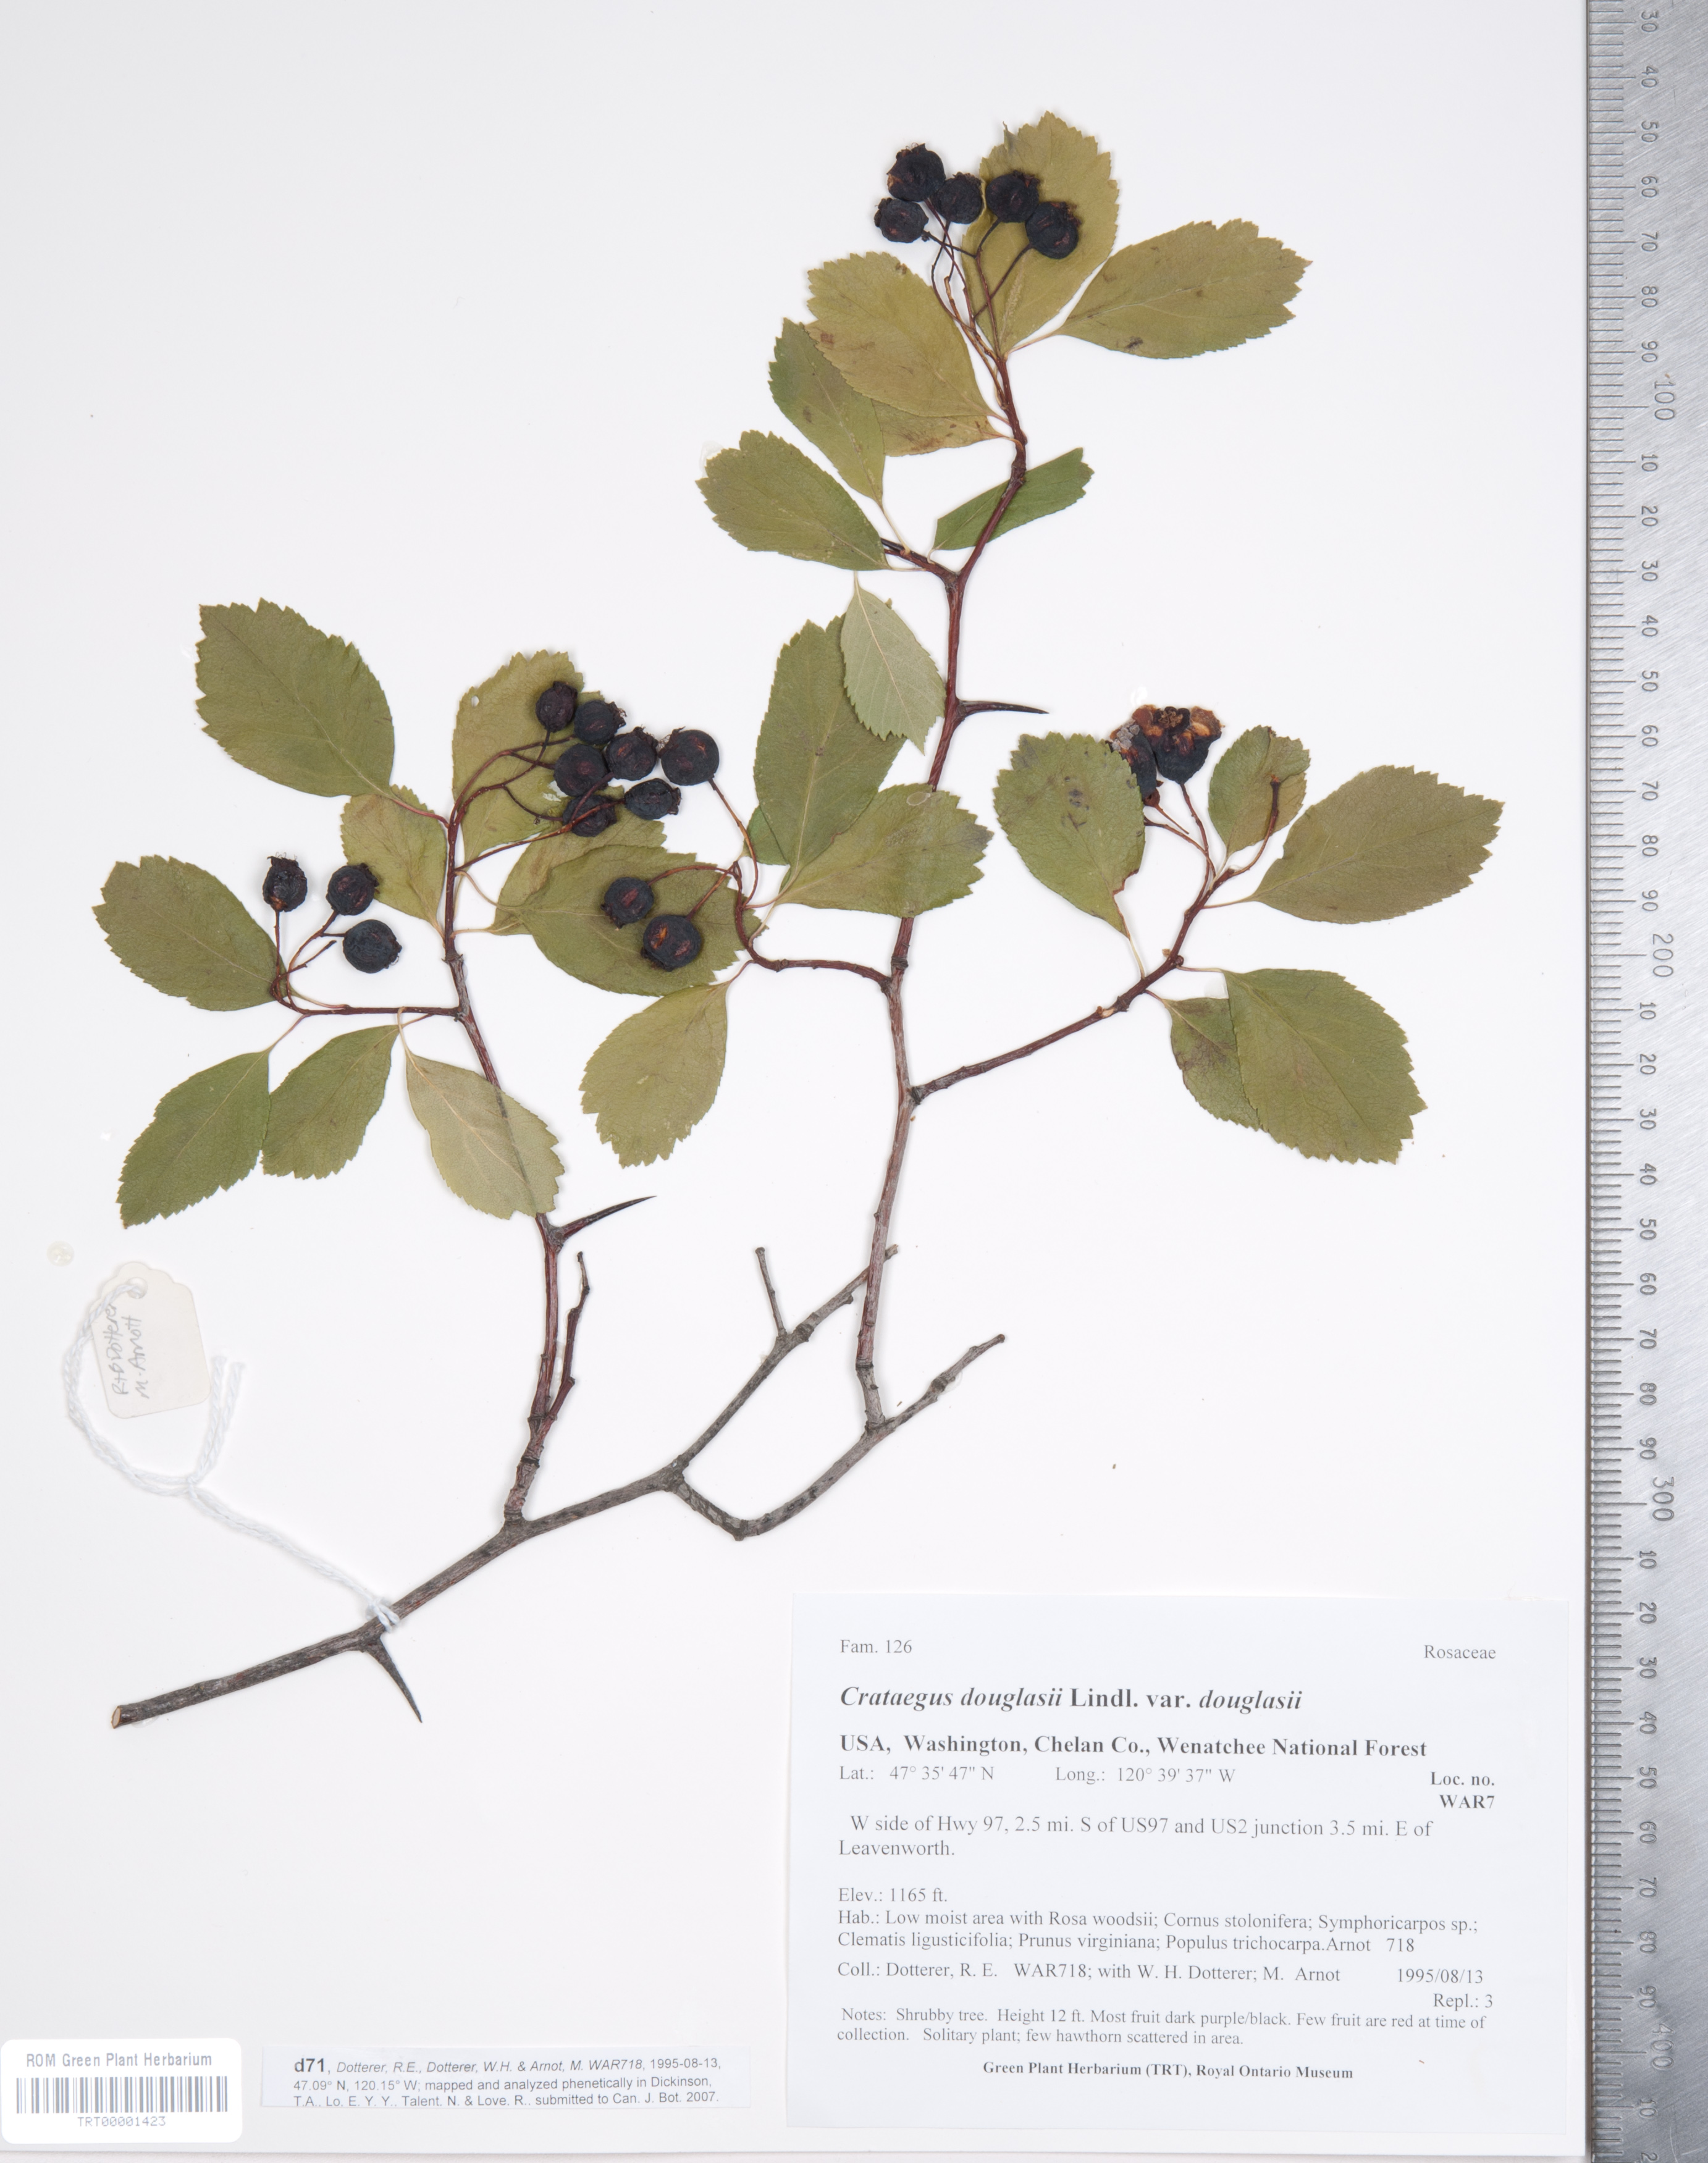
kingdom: Plantae
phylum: Tracheophyta
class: Magnoliopsida
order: Rosales
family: Rosaceae
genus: Crataegus
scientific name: Crataegus douglasii
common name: Black hawthorn
